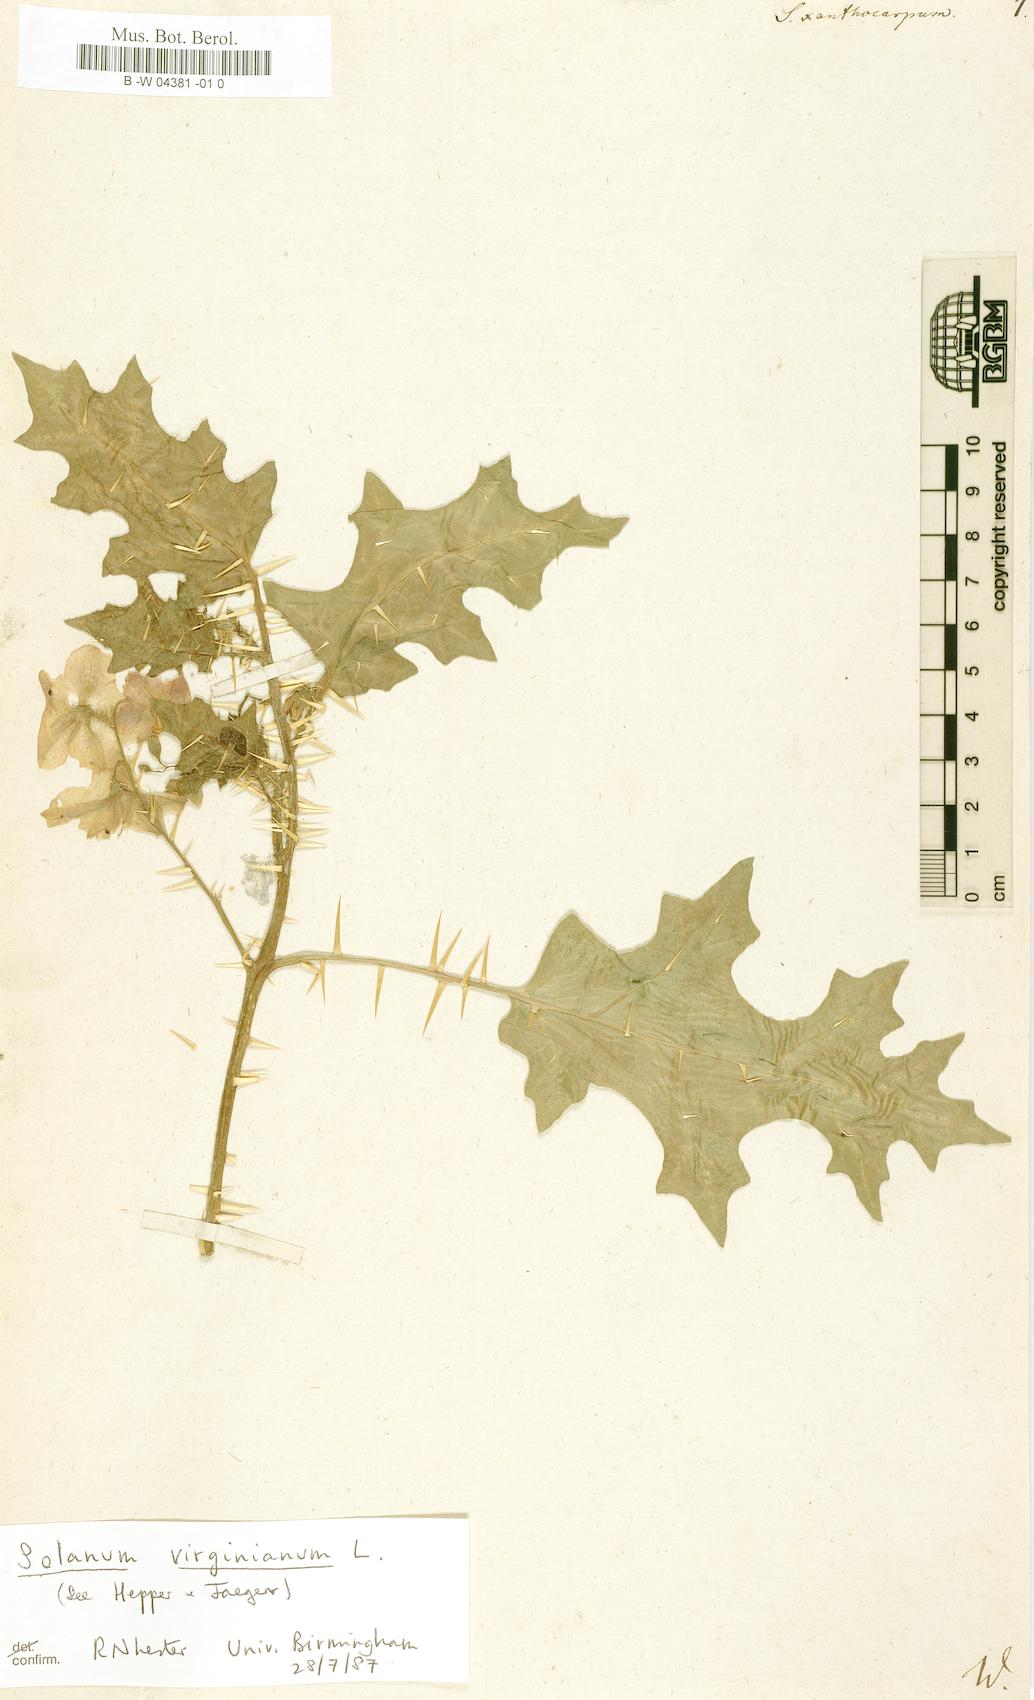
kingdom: Plantae
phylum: Tracheophyta
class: Magnoliopsida
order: Solanales
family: Solanaceae
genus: Solanum
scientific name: Solanum
